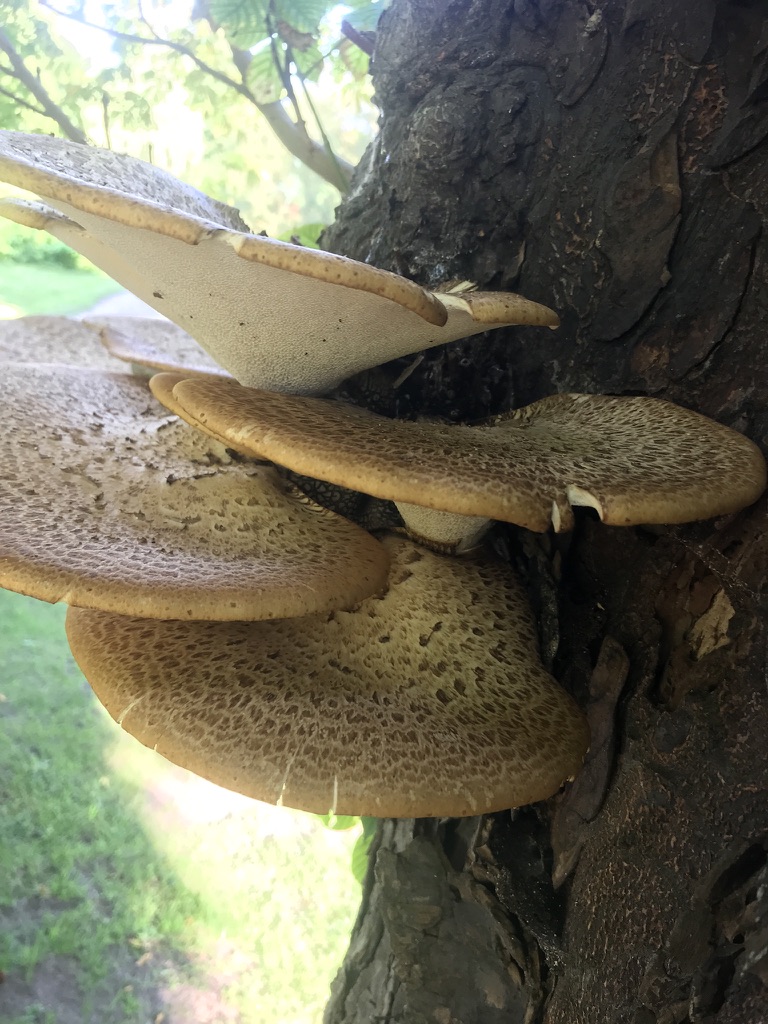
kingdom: Fungi
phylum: Basidiomycota
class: Agaricomycetes
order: Polyporales
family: Polyporaceae
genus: Cerioporus
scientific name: Cerioporus squamosus
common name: skællet stilkporesvamp
